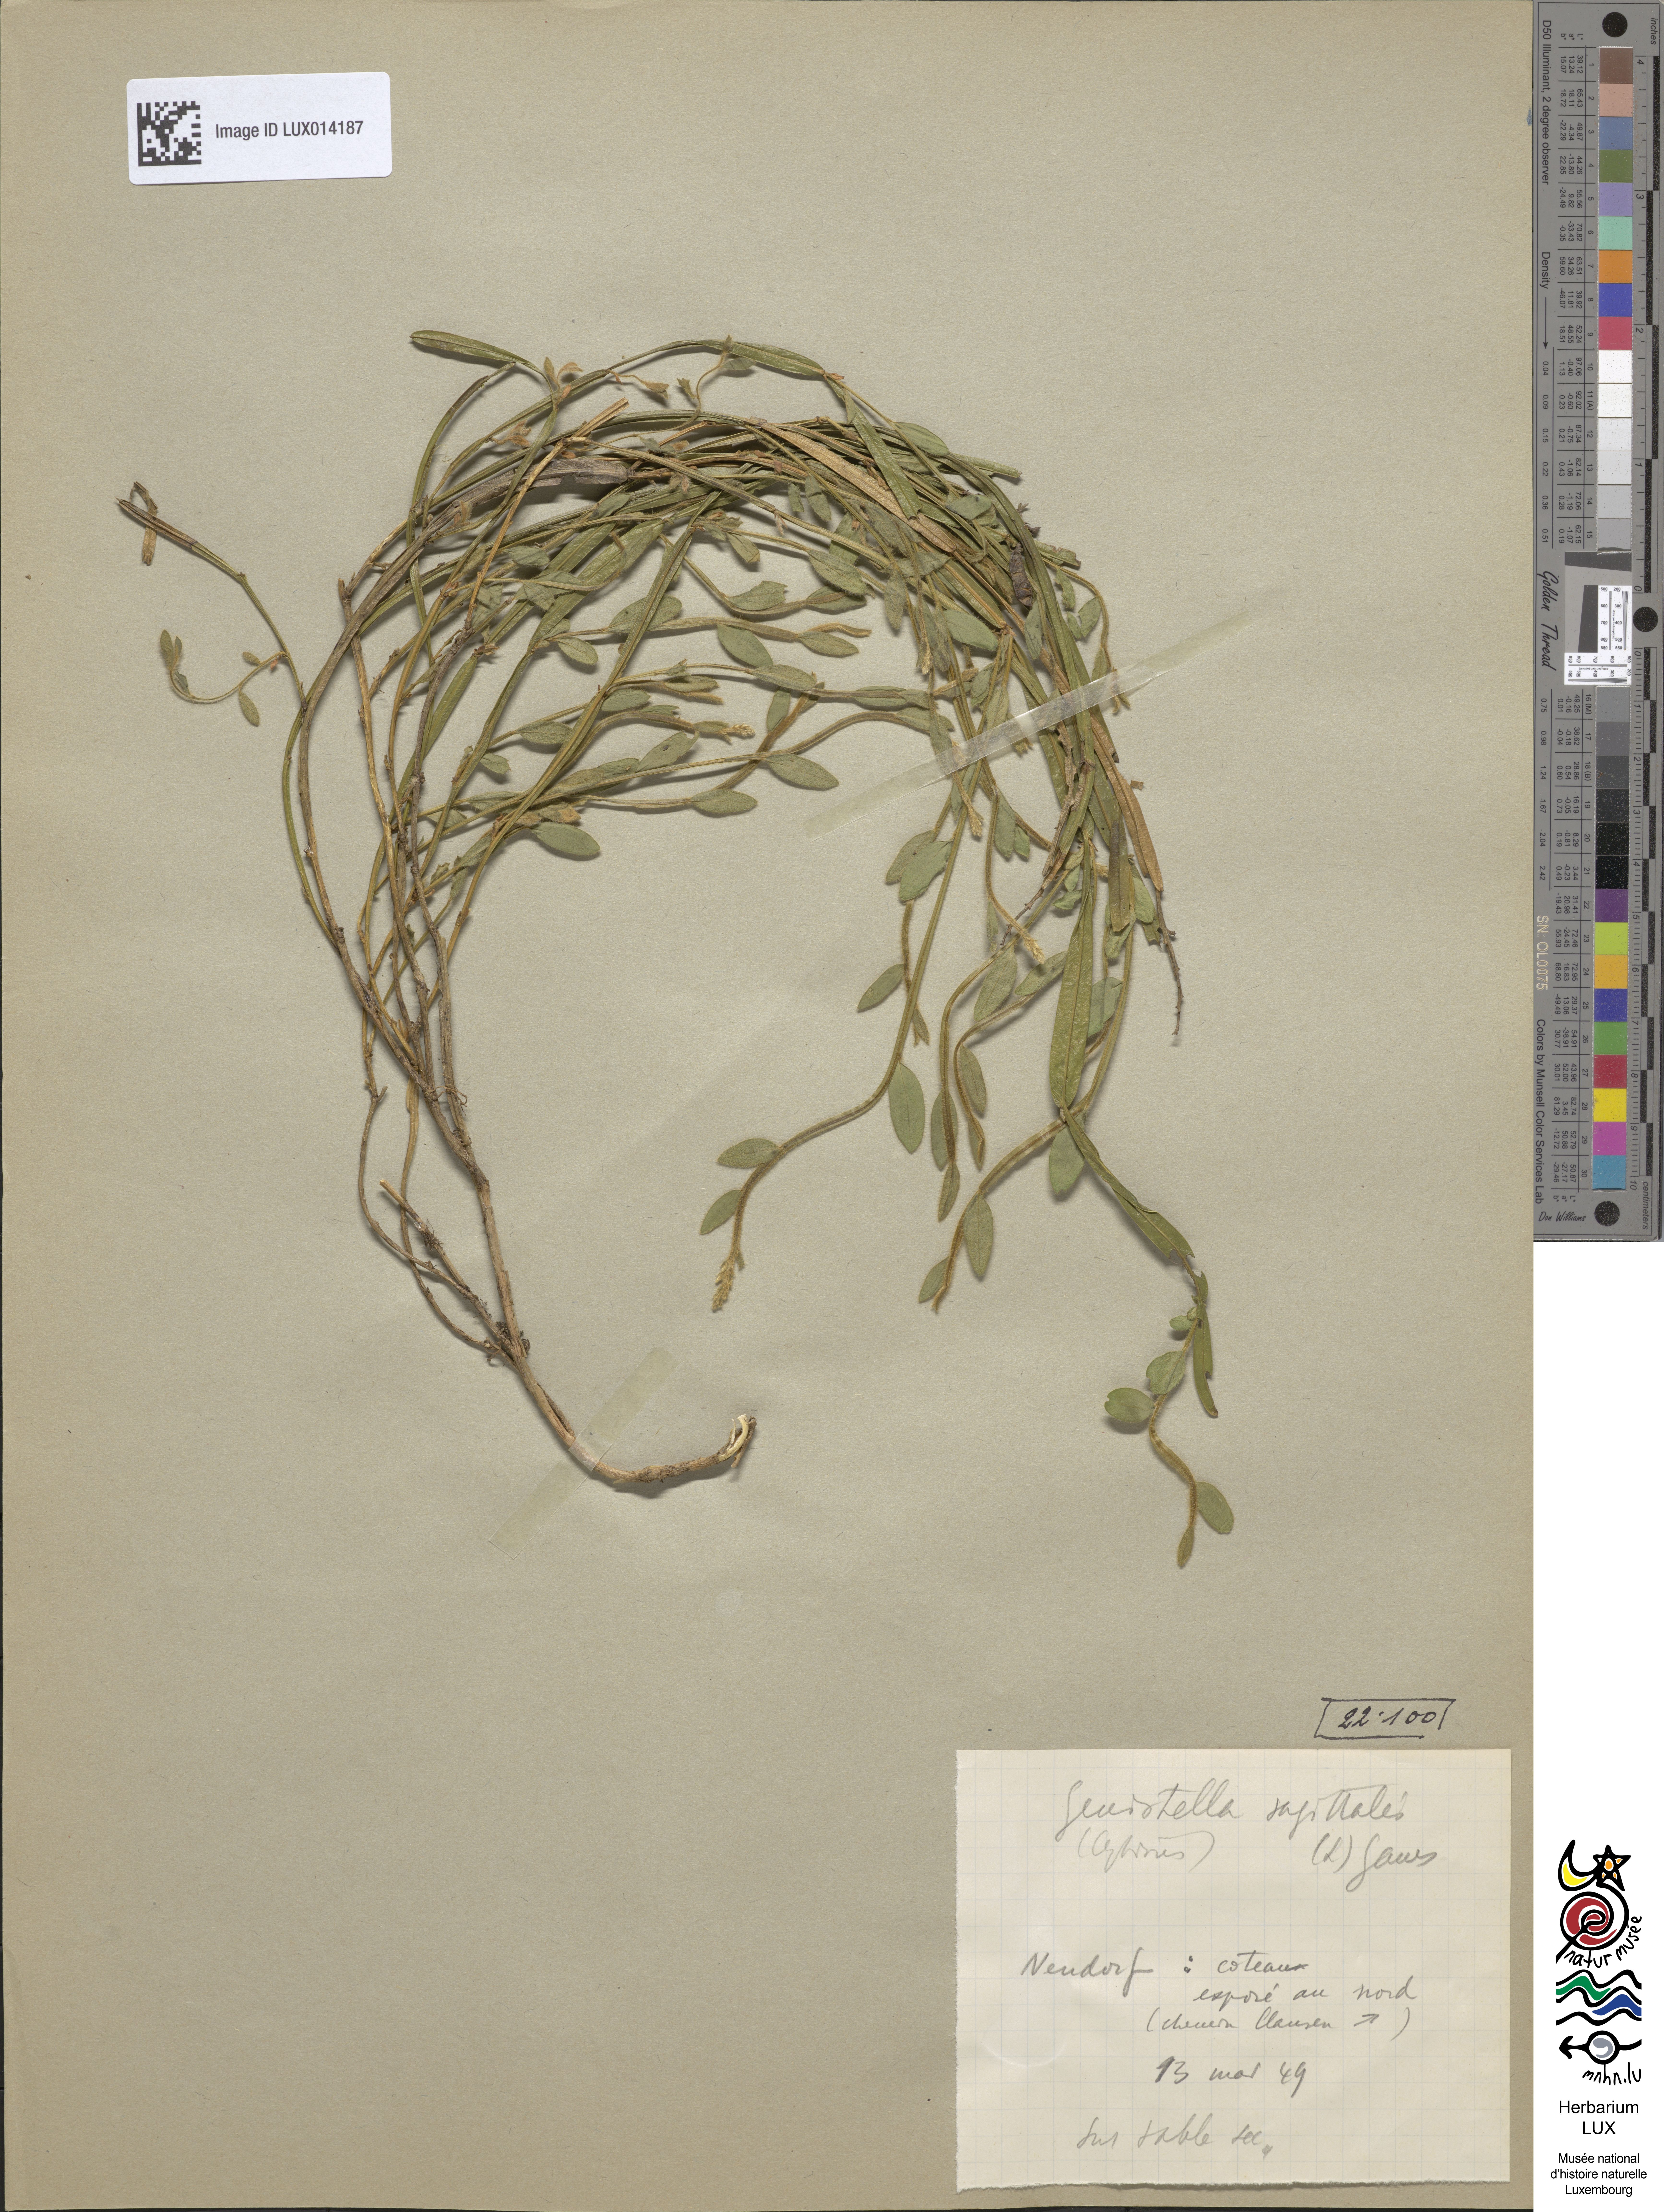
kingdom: Plantae
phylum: Tracheophyta
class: Magnoliopsida
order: Fabales
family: Fabaceae
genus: Genista
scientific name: Genista sagittalis
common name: Winged greenweed
